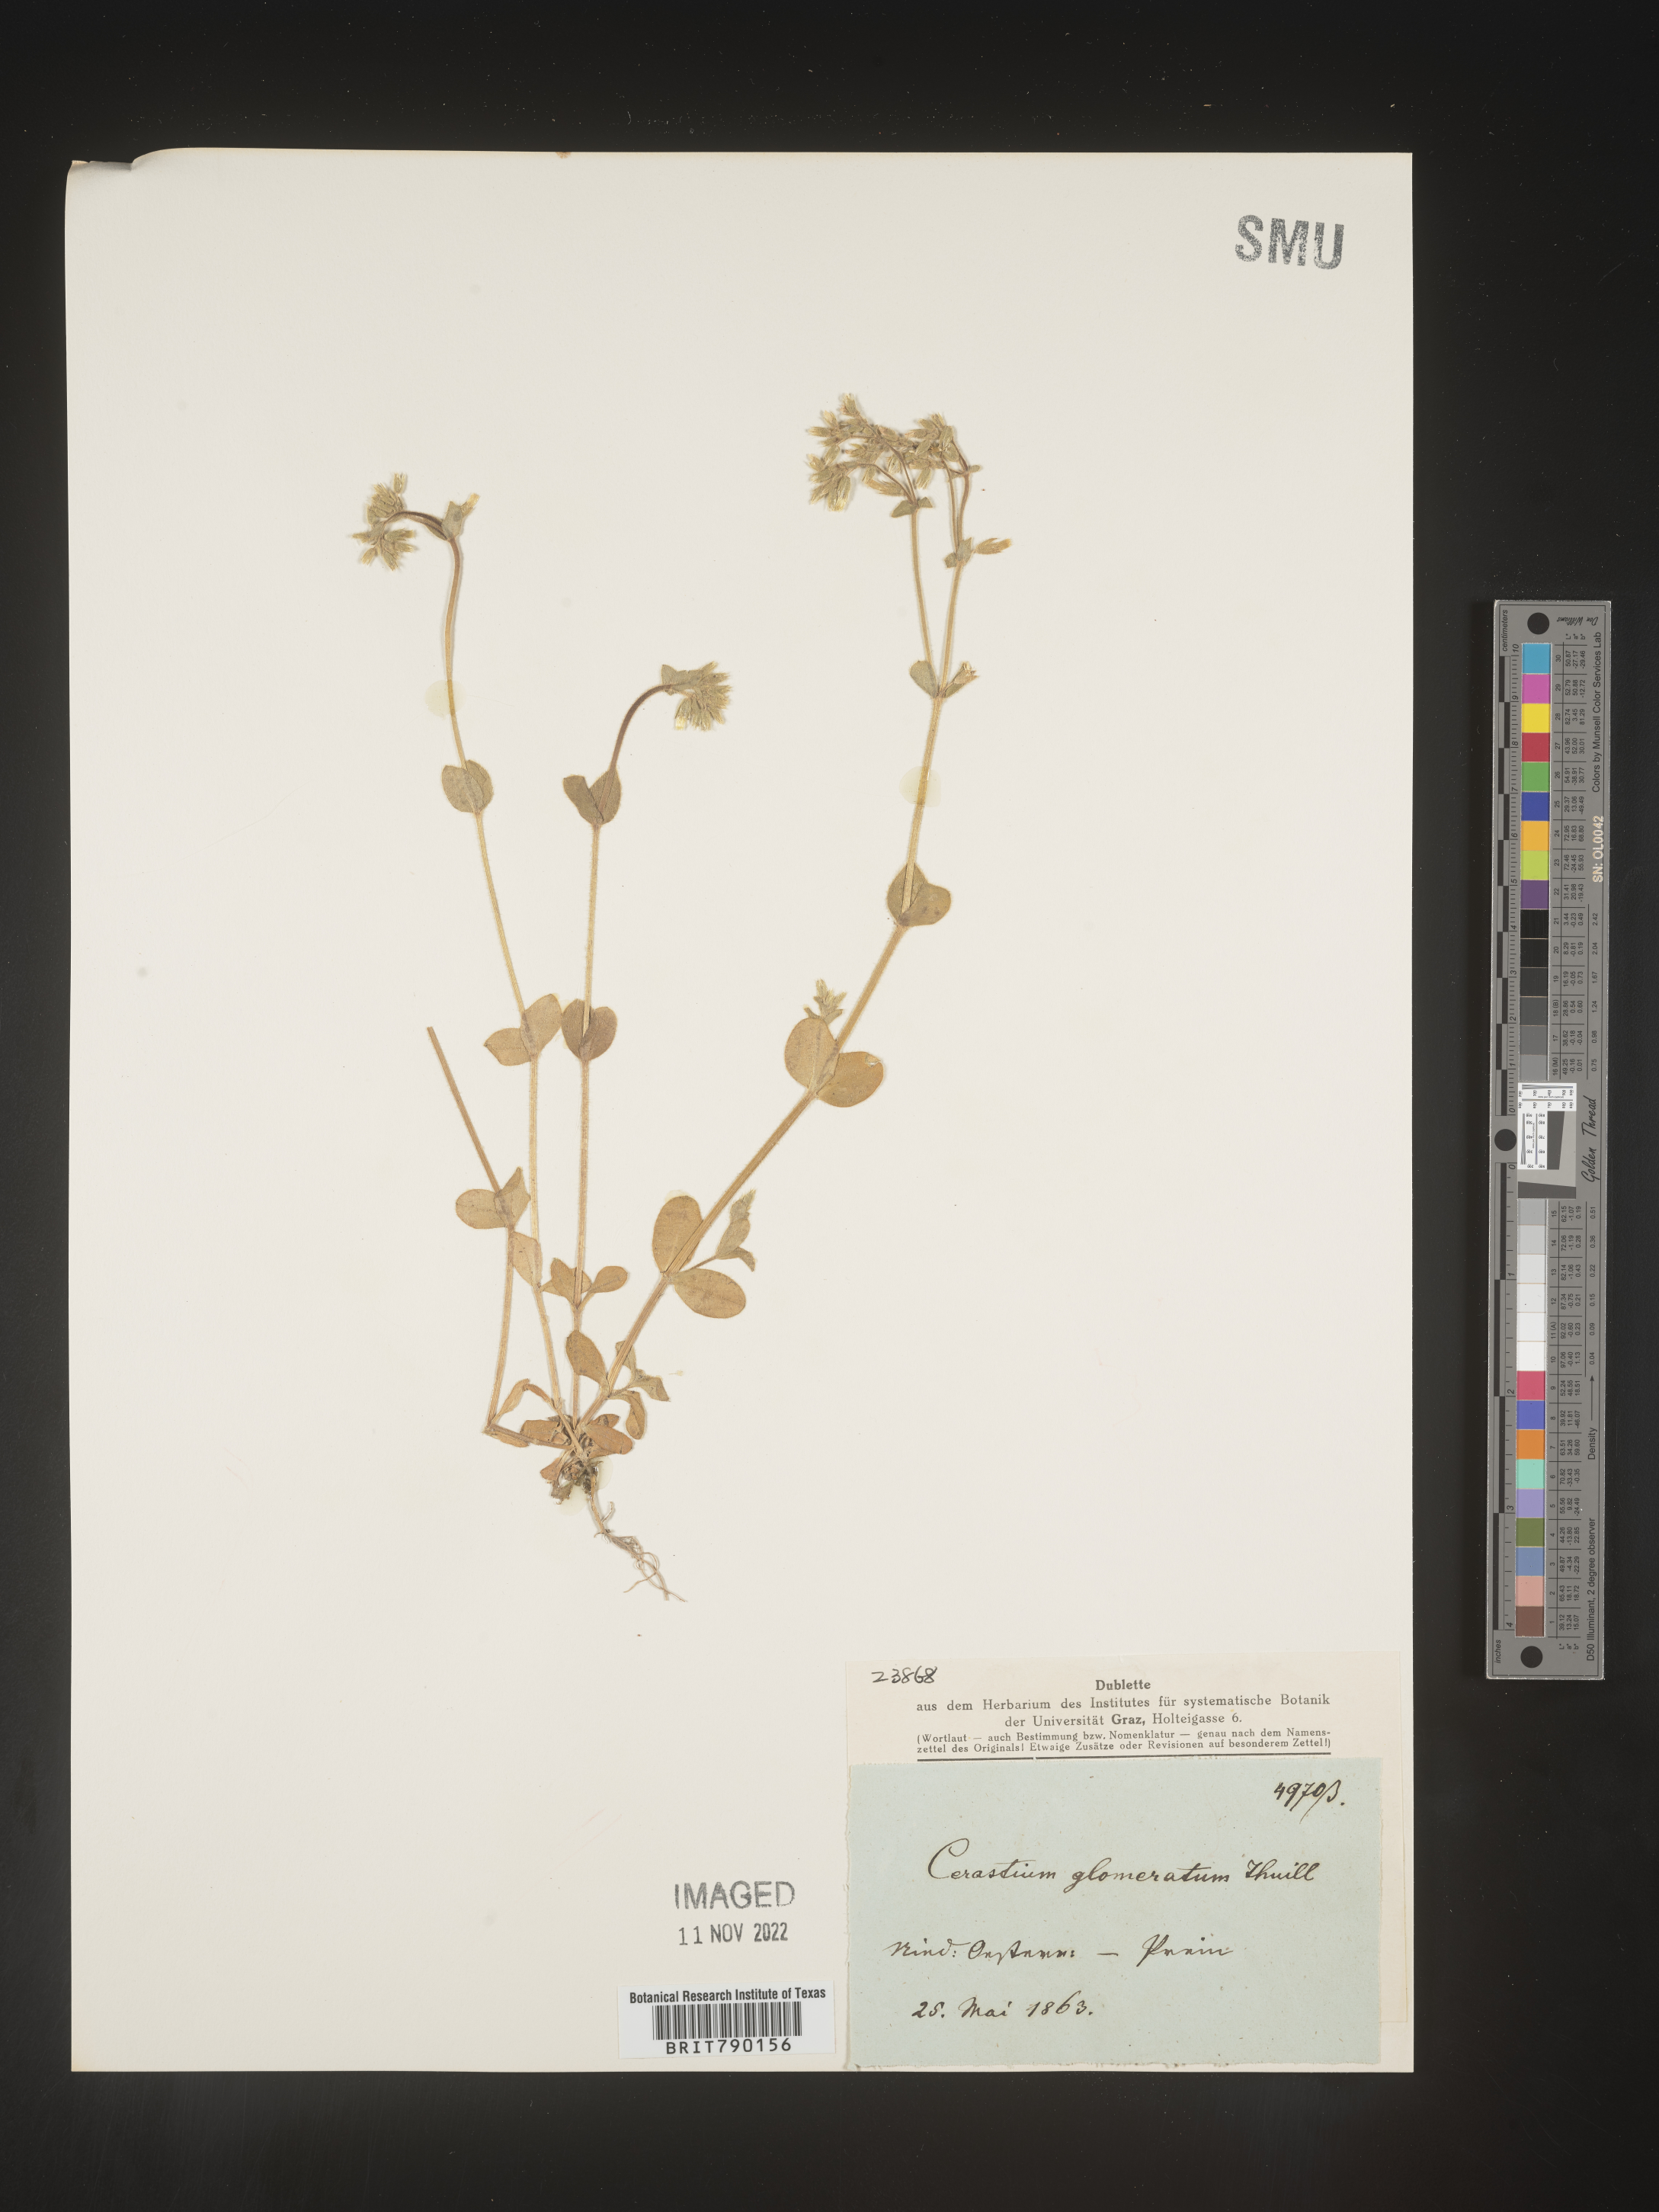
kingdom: Plantae
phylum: Tracheophyta
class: Magnoliopsida
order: Caryophyllales
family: Caryophyllaceae
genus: Cerastium
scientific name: Cerastium
